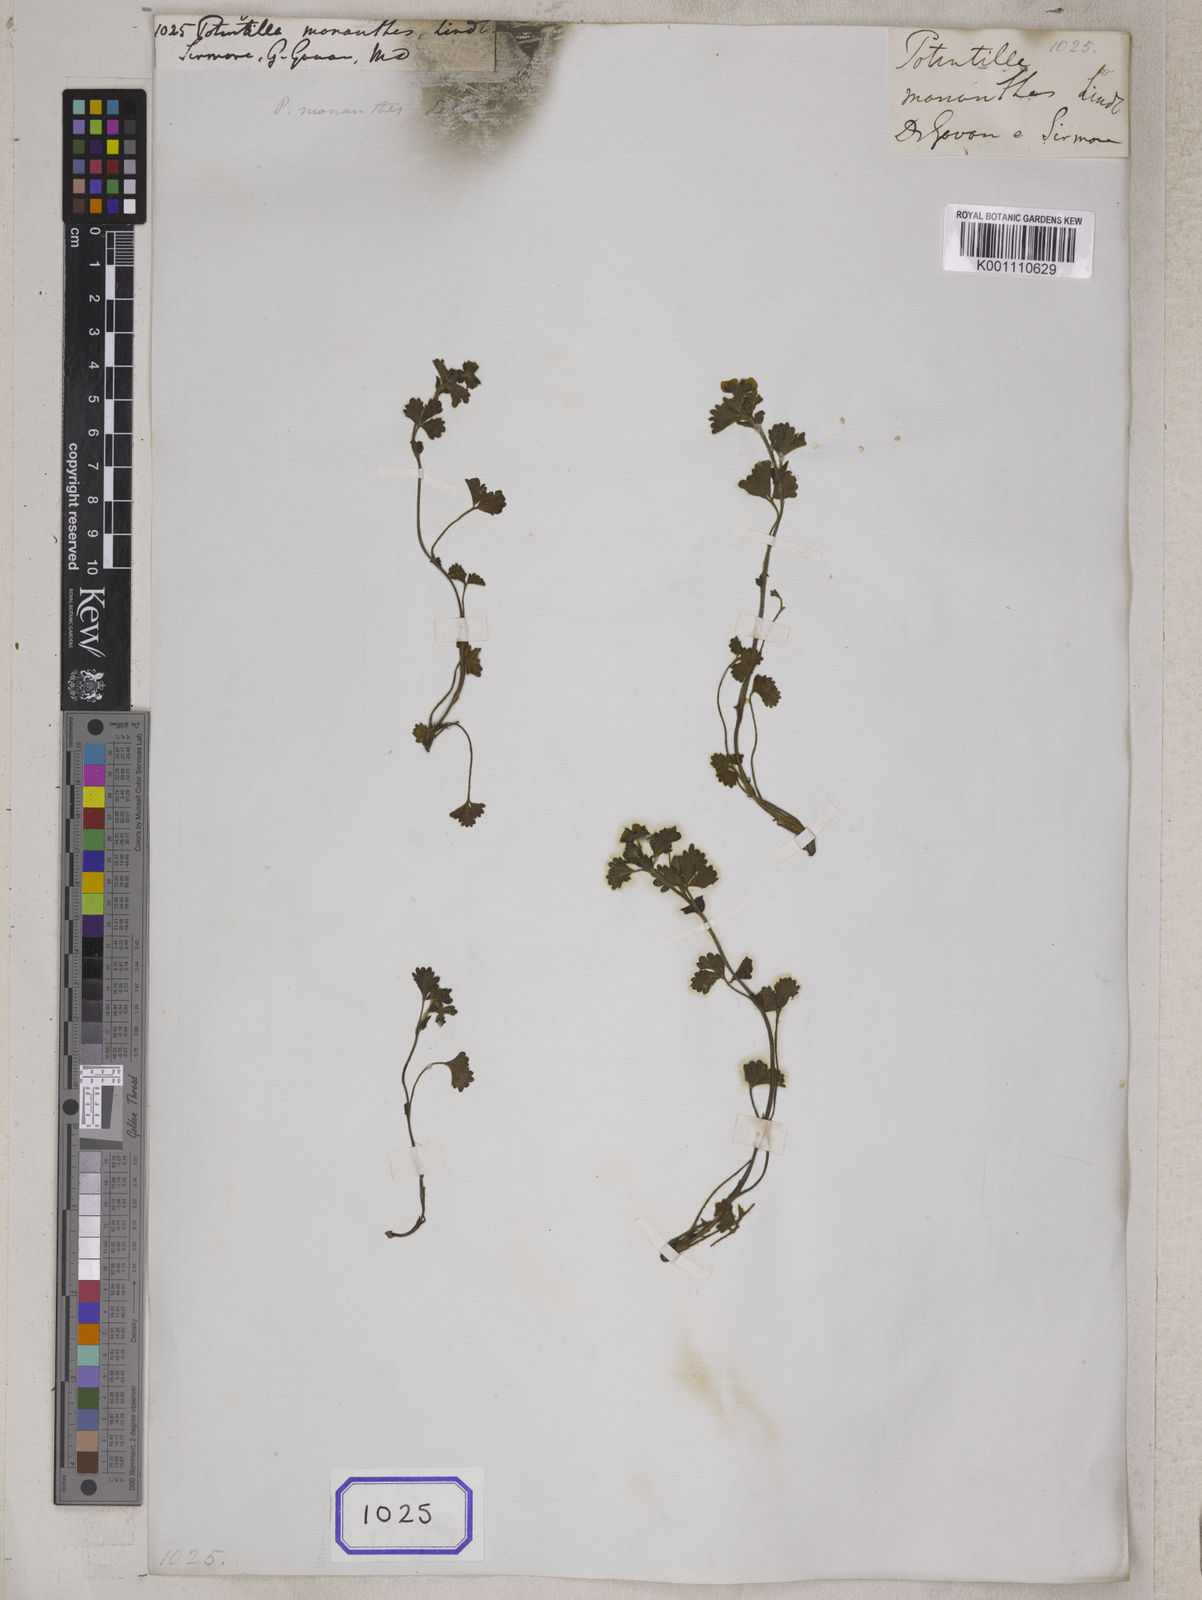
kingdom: Plantae
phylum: Tracheophyta
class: Magnoliopsida
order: Rosales
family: Rosaceae
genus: Potentilla
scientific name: Potentilla
